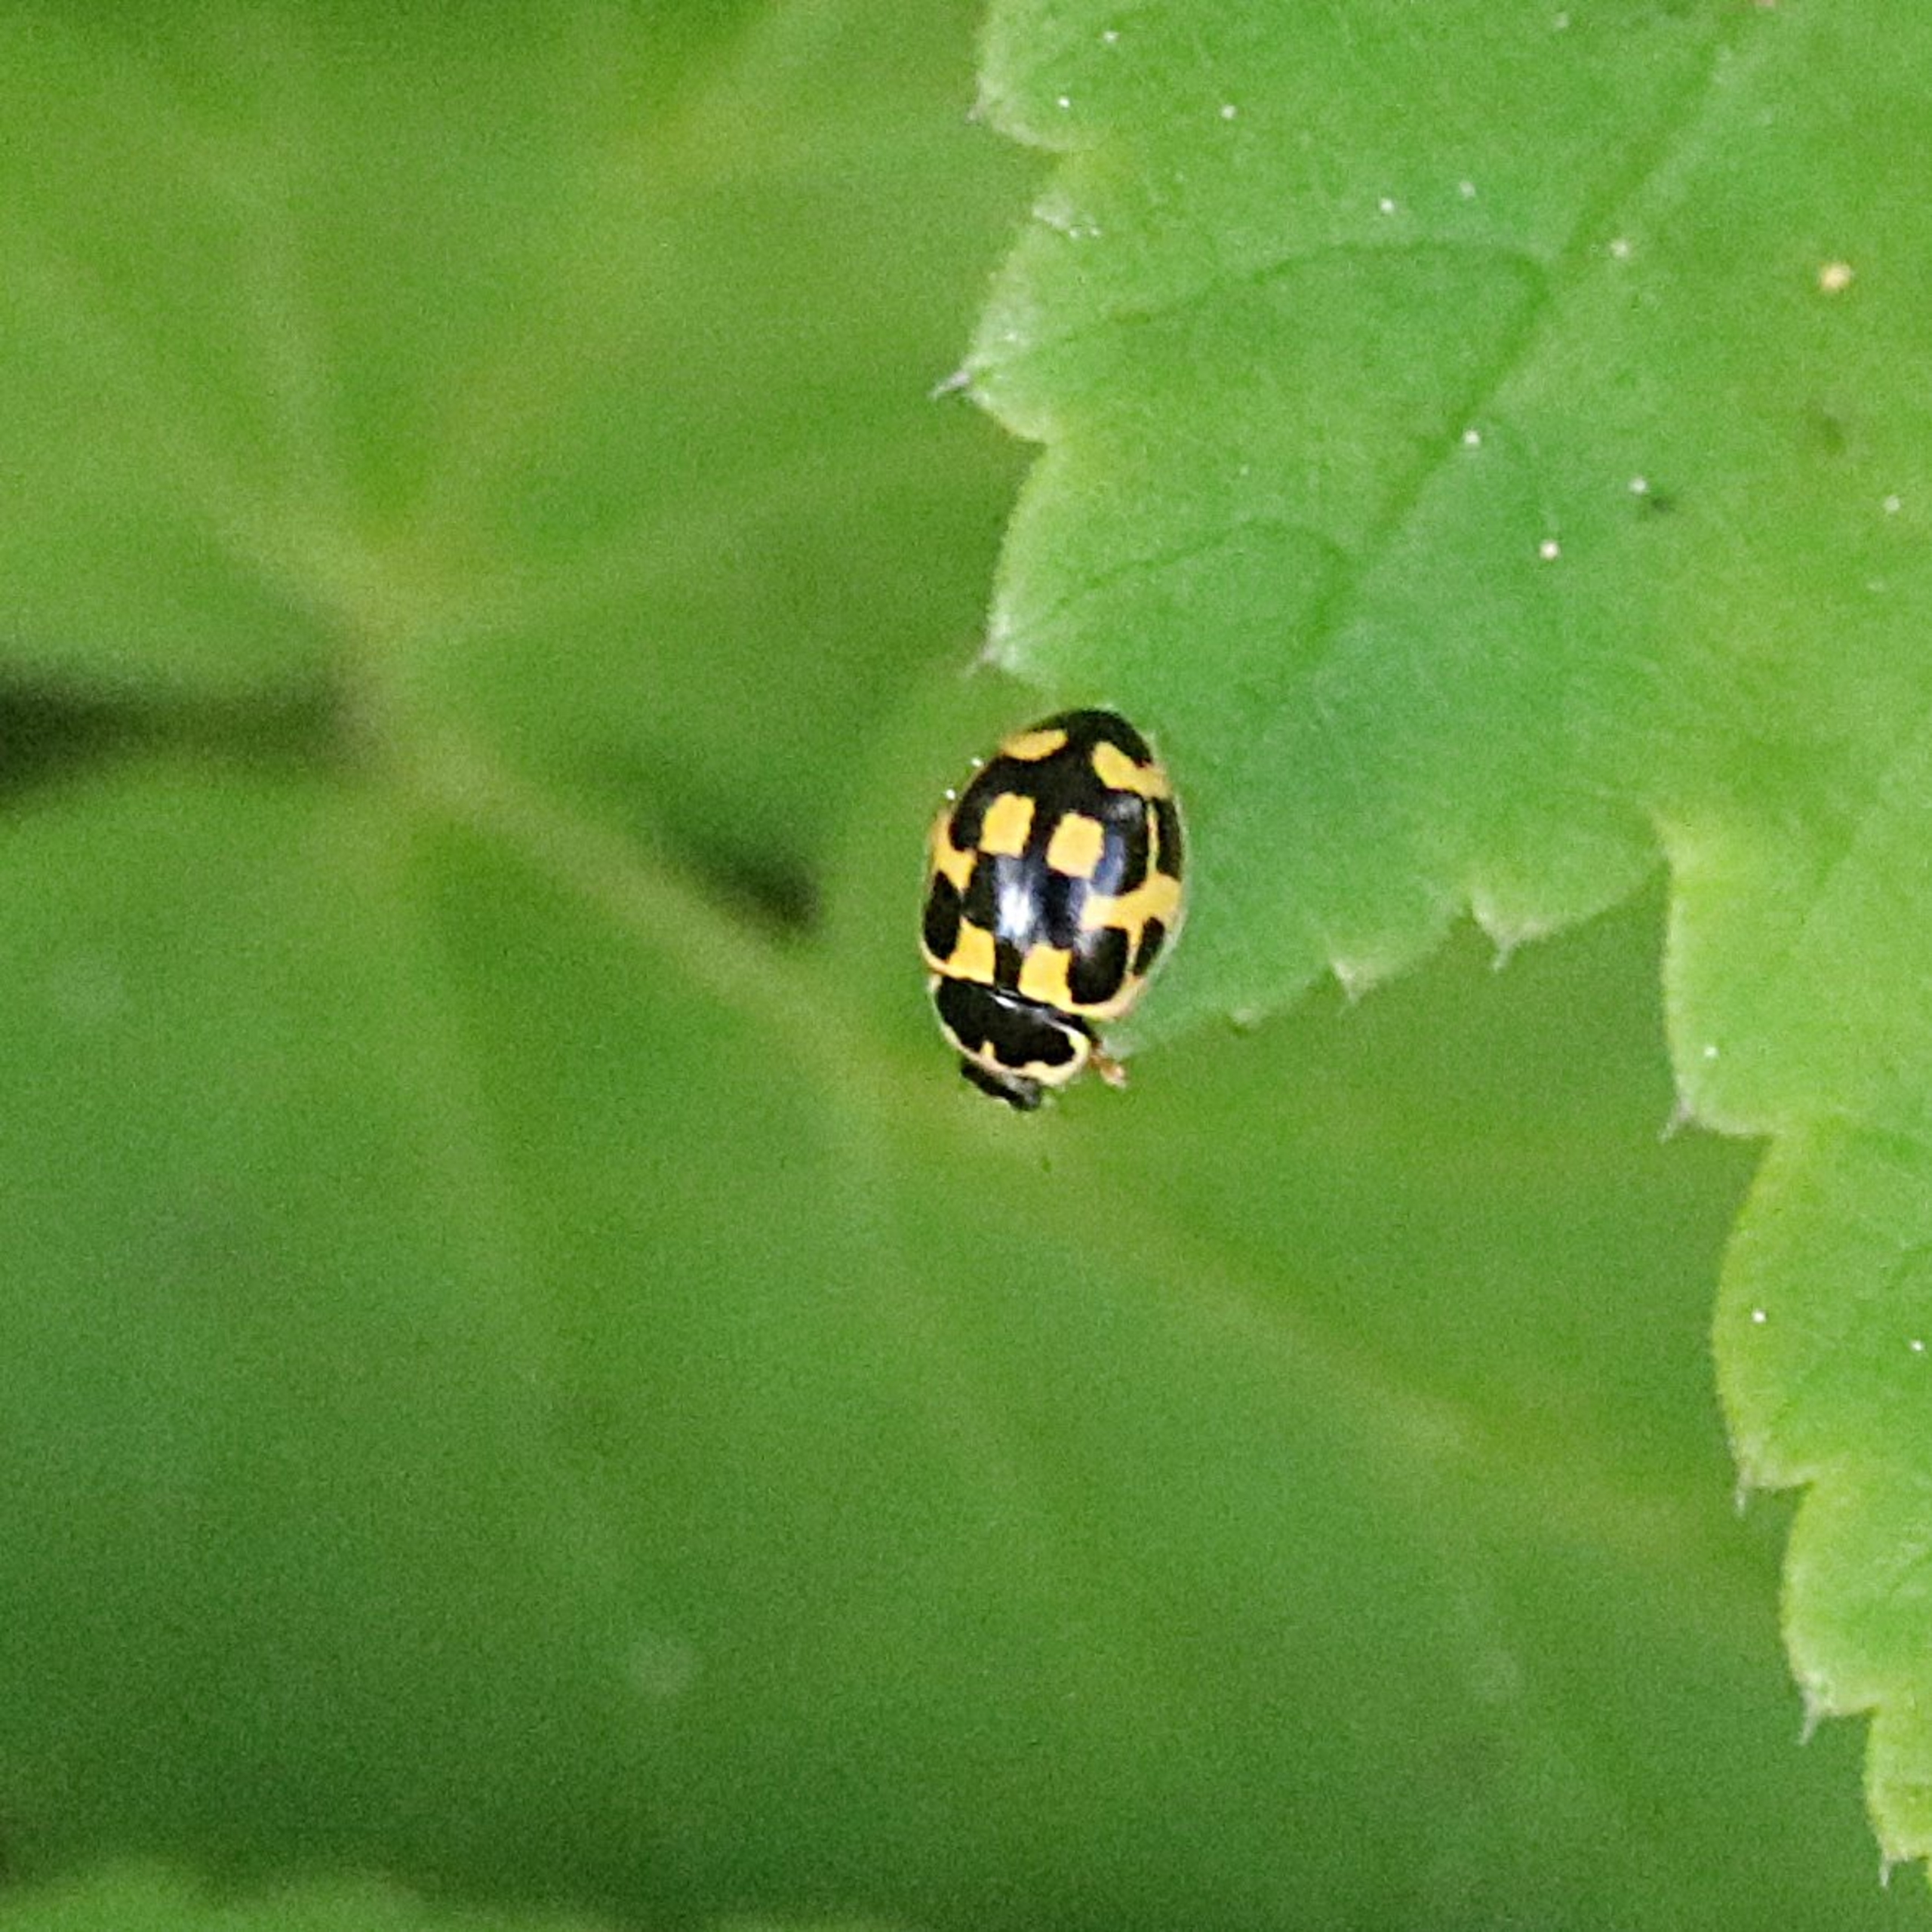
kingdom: Animalia
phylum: Arthropoda
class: Insecta
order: Coleoptera
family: Coccinellidae
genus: Propylaea
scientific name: Propylaea quatuordecimpunctata
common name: Skakbræt
